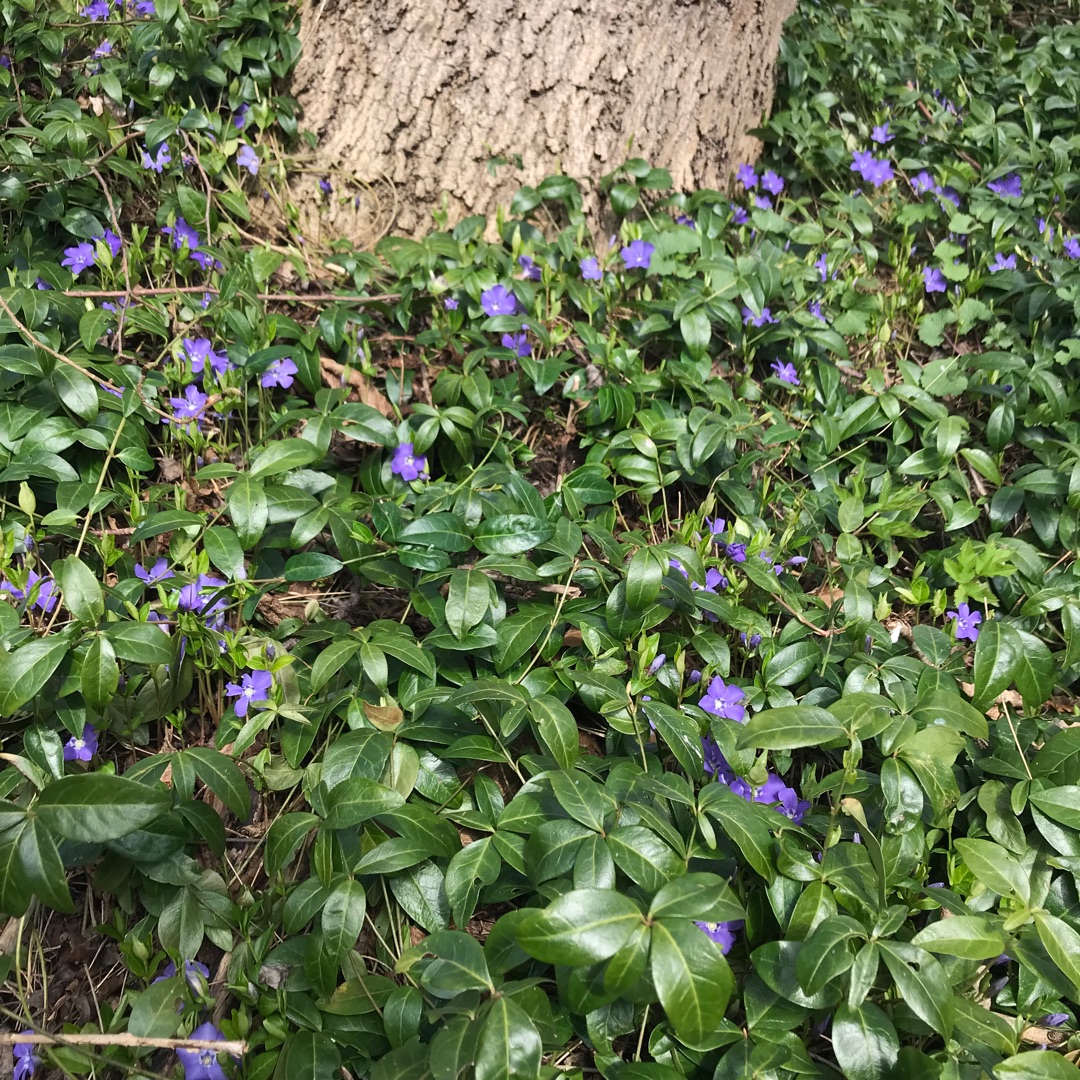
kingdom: Plantae
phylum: Tracheophyta
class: Magnoliopsida
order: Gentianales
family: Apocynaceae
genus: Vinca
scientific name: Vinca minor
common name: Liden singrøn
